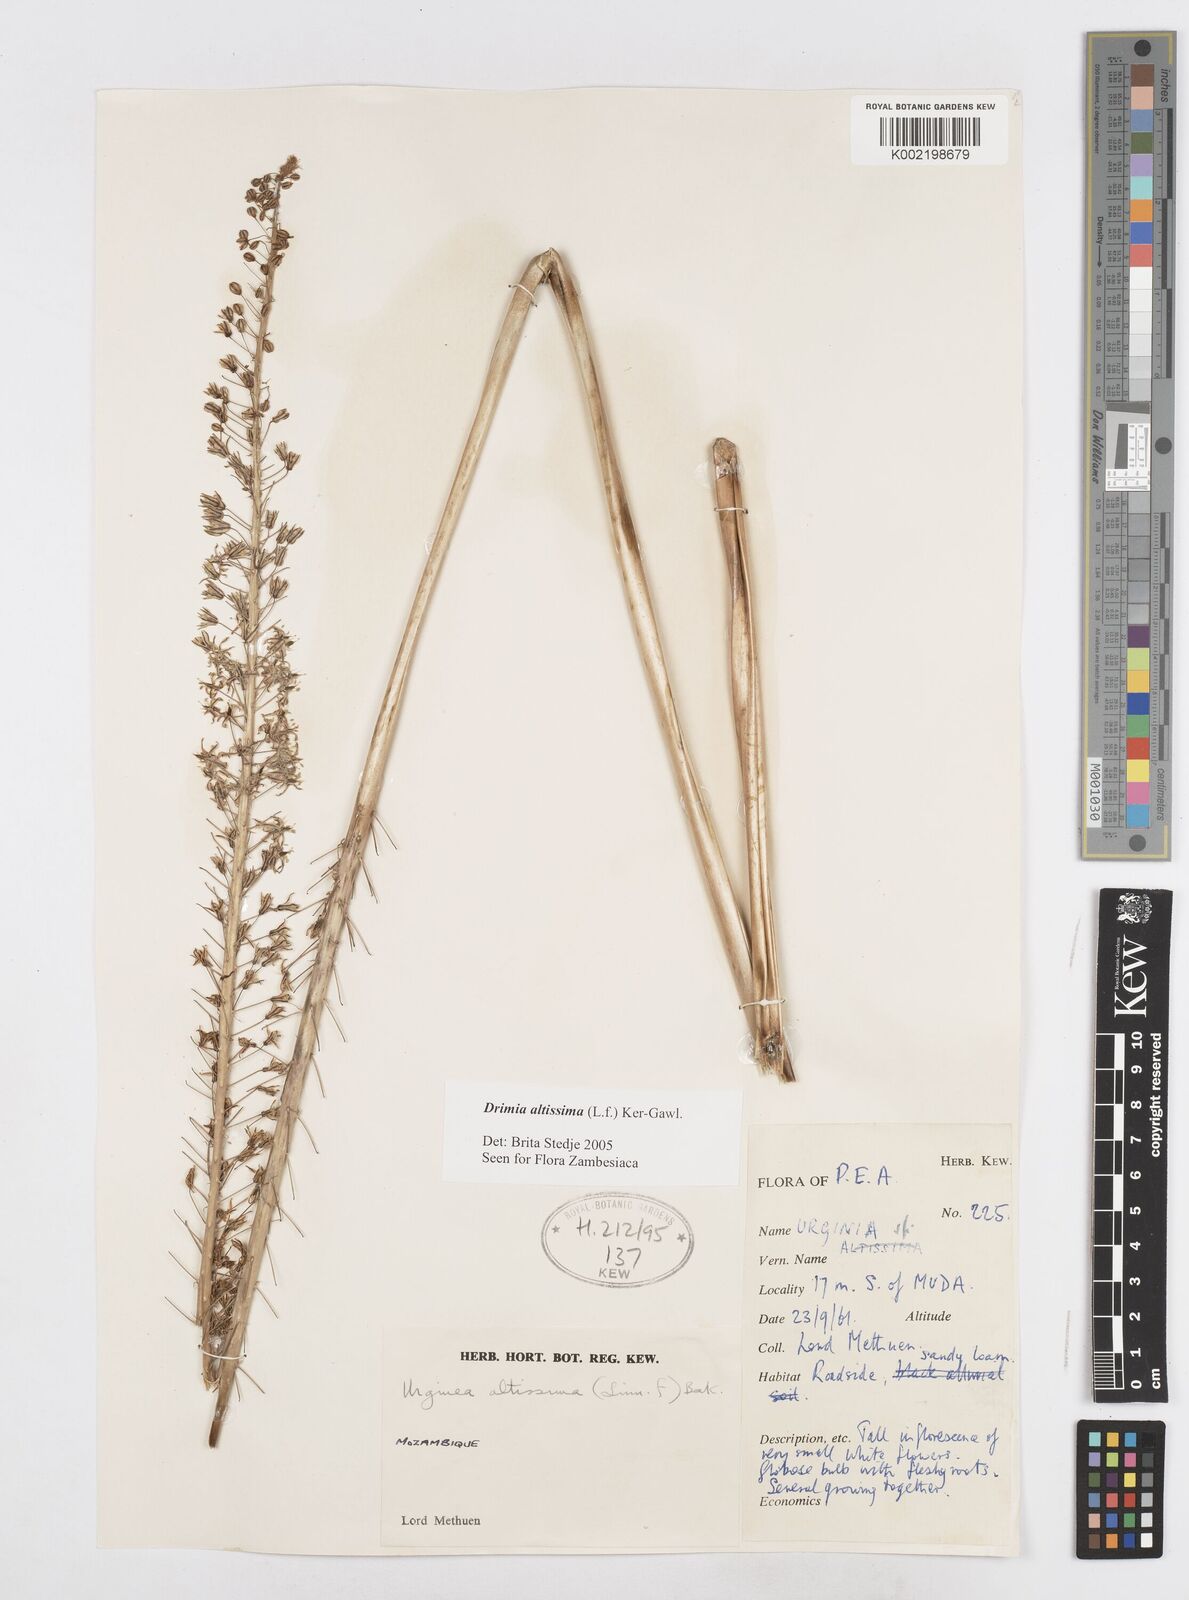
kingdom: Plantae
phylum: Tracheophyta
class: Liliopsida
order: Asparagales
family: Asparagaceae
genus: Drimia
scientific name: Drimia altissima
